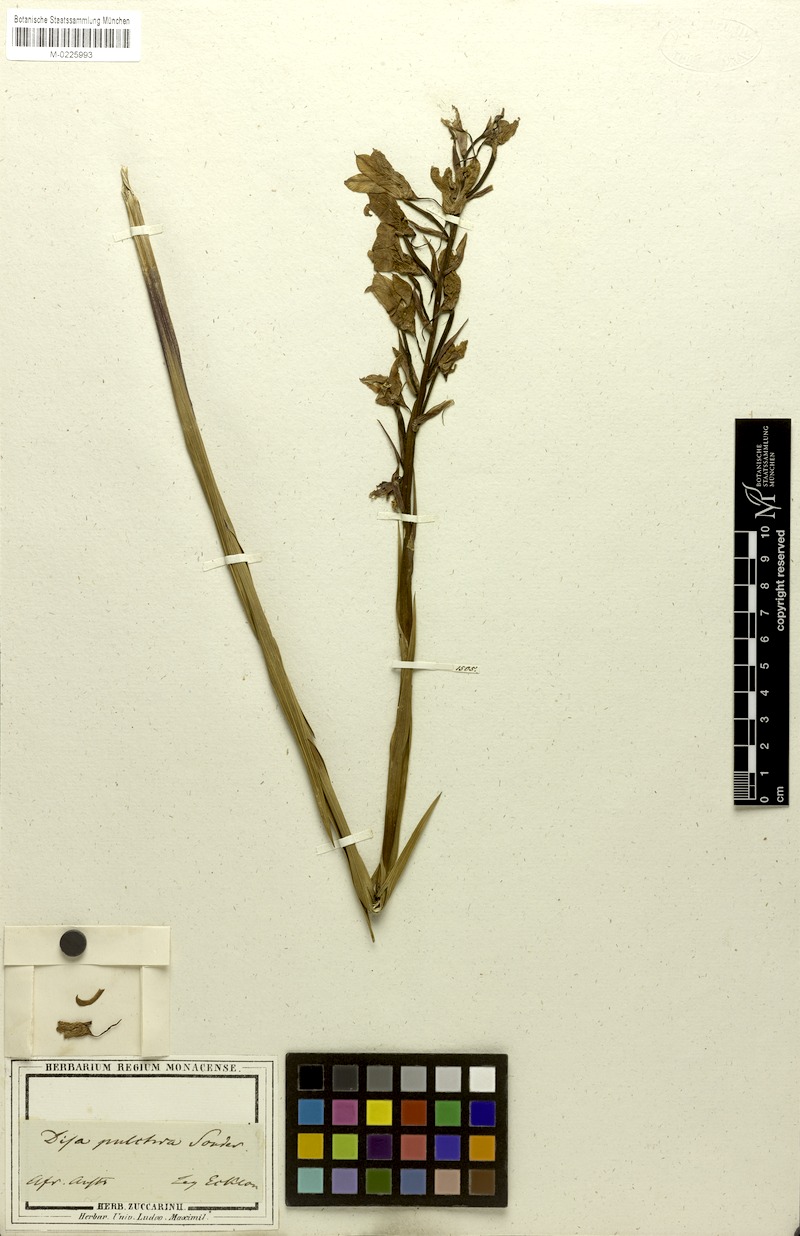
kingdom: Plantae
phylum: Tracheophyta
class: Liliopsida
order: Asparagales
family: Orchidaceae
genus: Disa
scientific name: Disa pulchra
